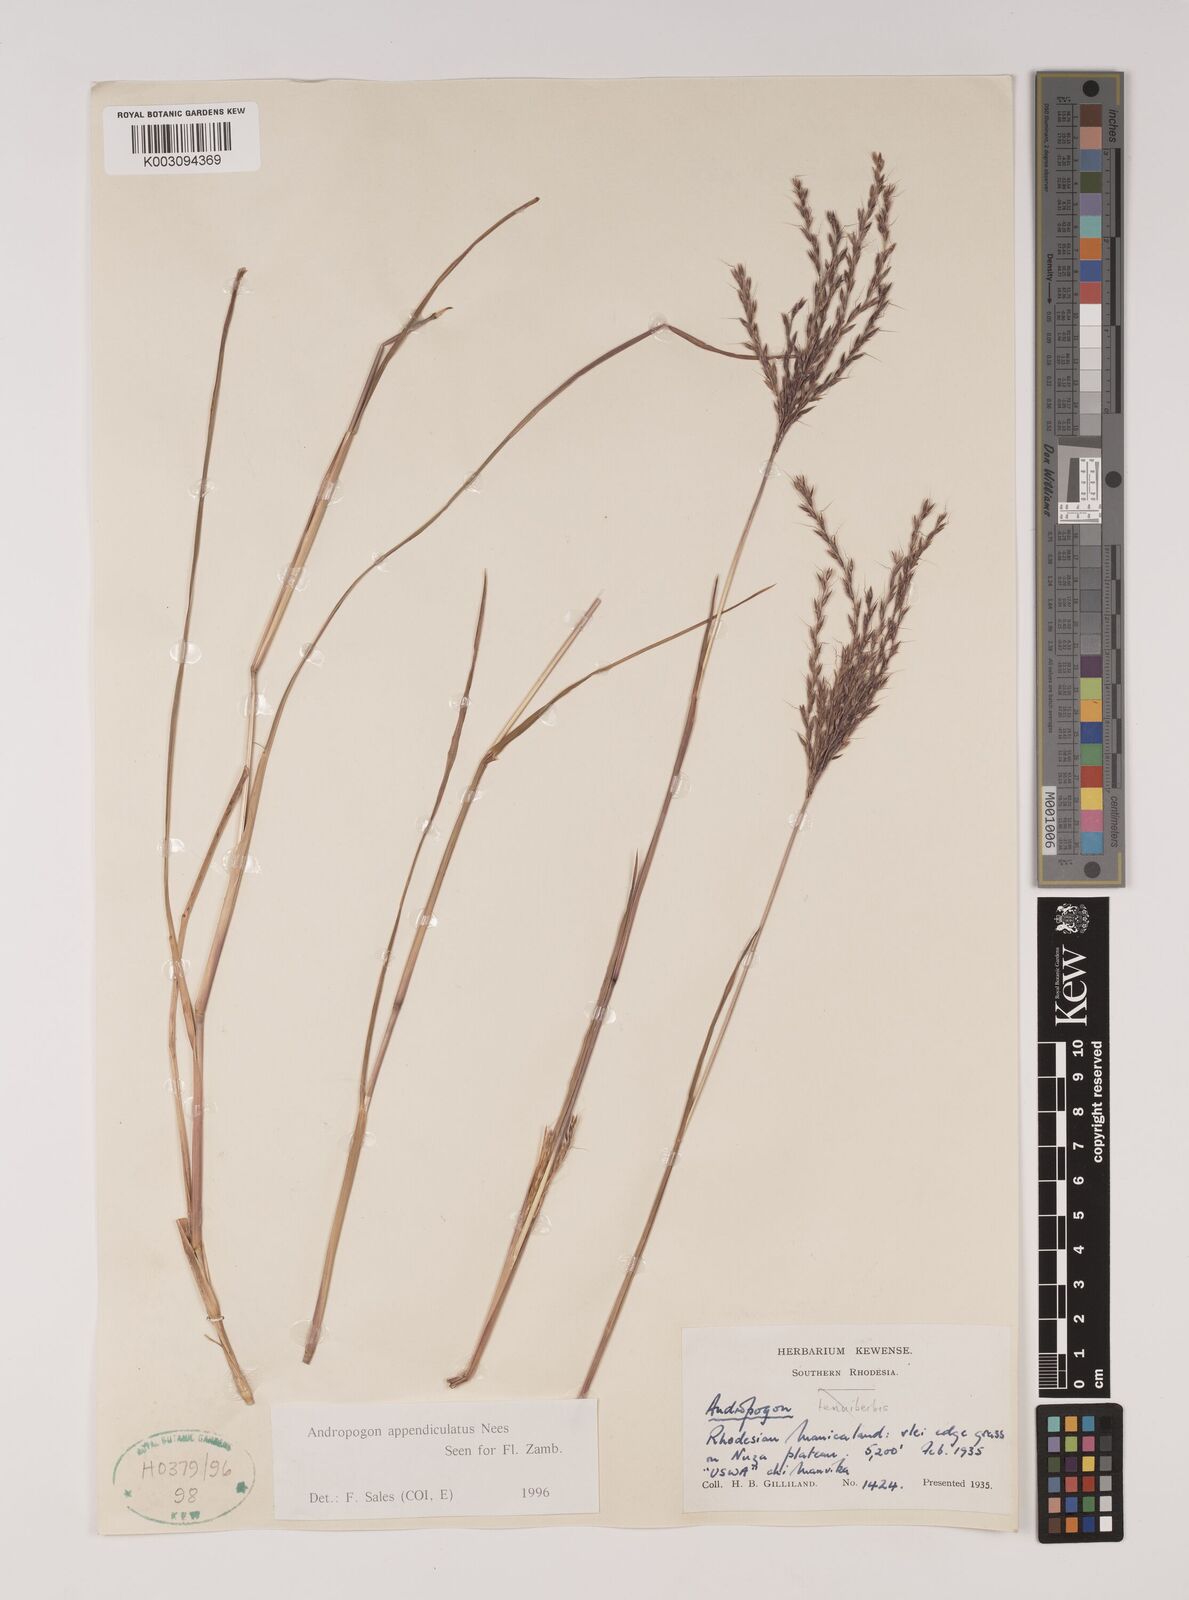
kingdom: Plantae
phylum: Tracheophyta
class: Liliopsida
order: Poales
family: Poaceae
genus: Andropogon
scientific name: Andropogon appendiculatus
